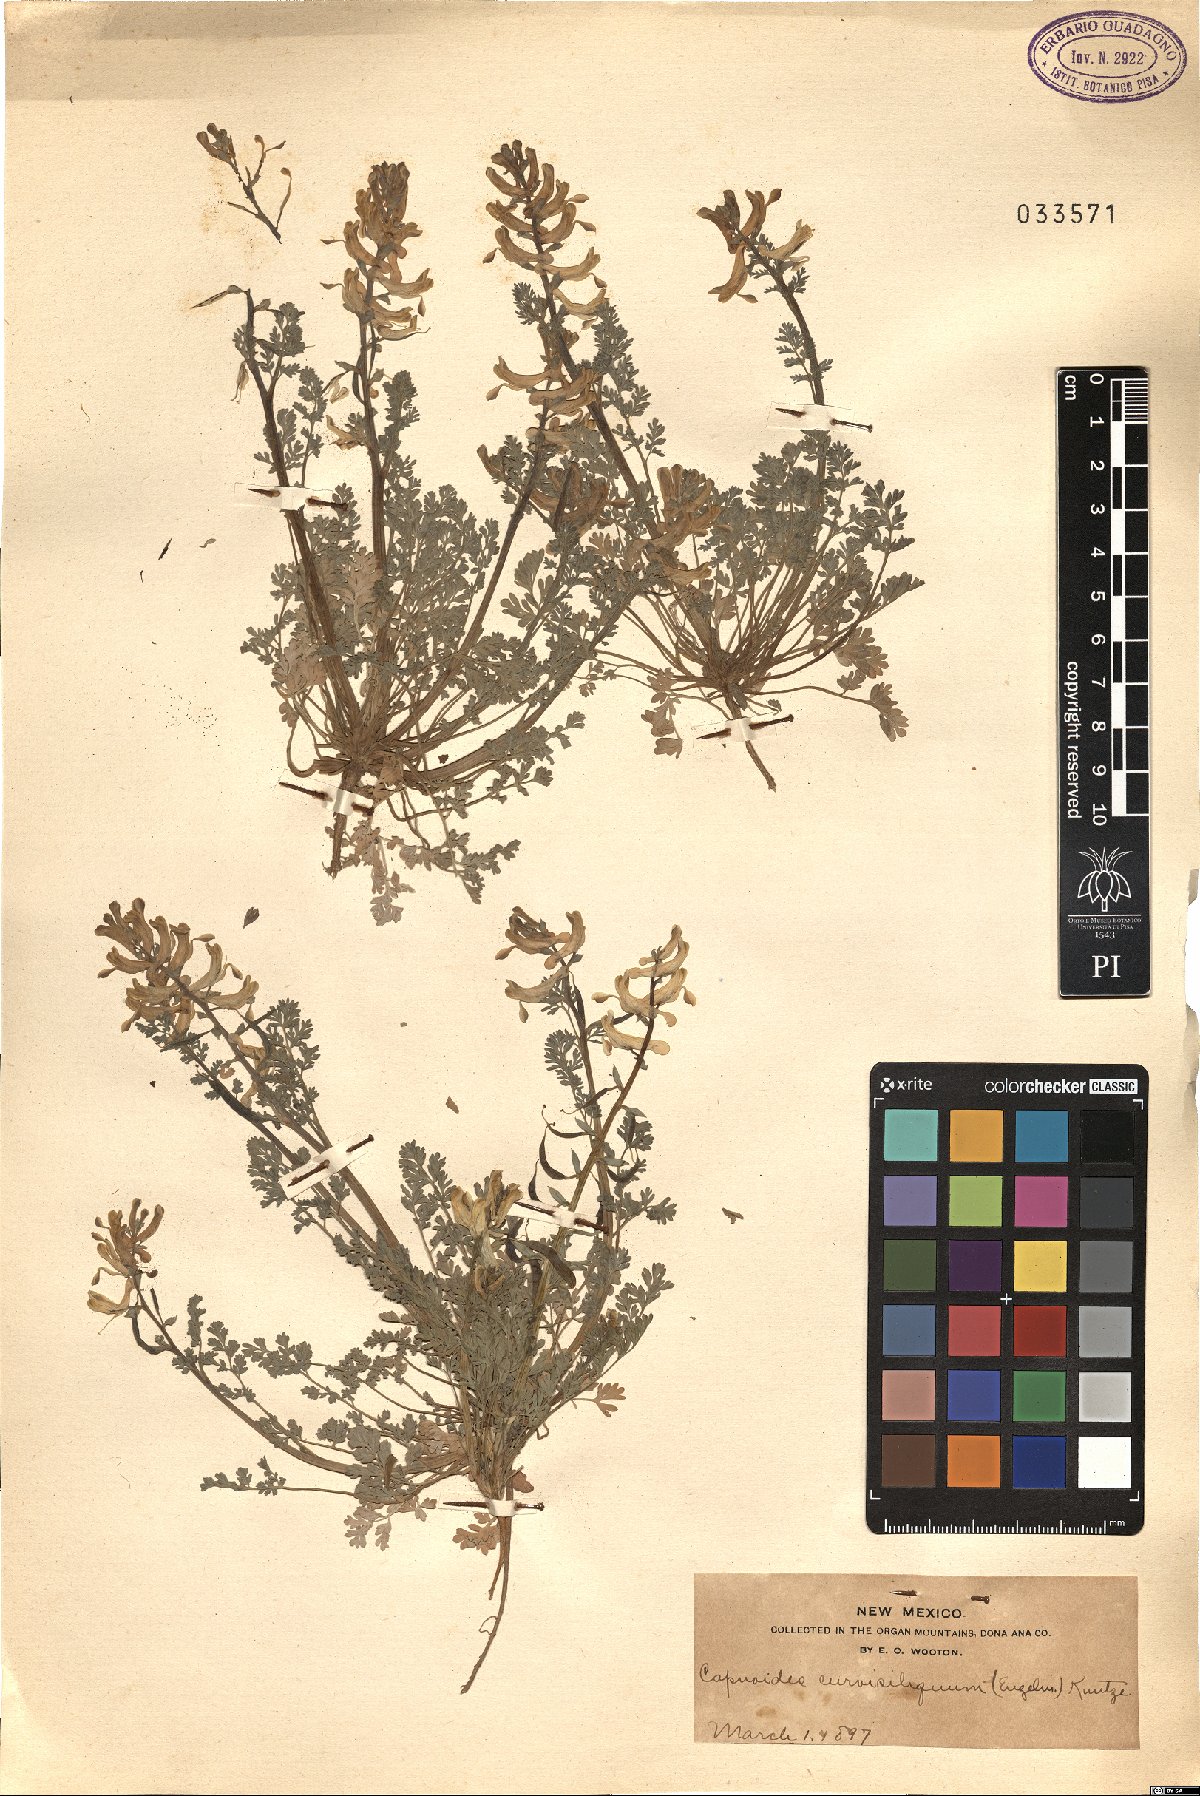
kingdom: Plantae
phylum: Tracheophyta
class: Magnoliopsida
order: Ranunculales
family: Papaveraceae
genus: Corydalis
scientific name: Corydalis curvisiliqua
